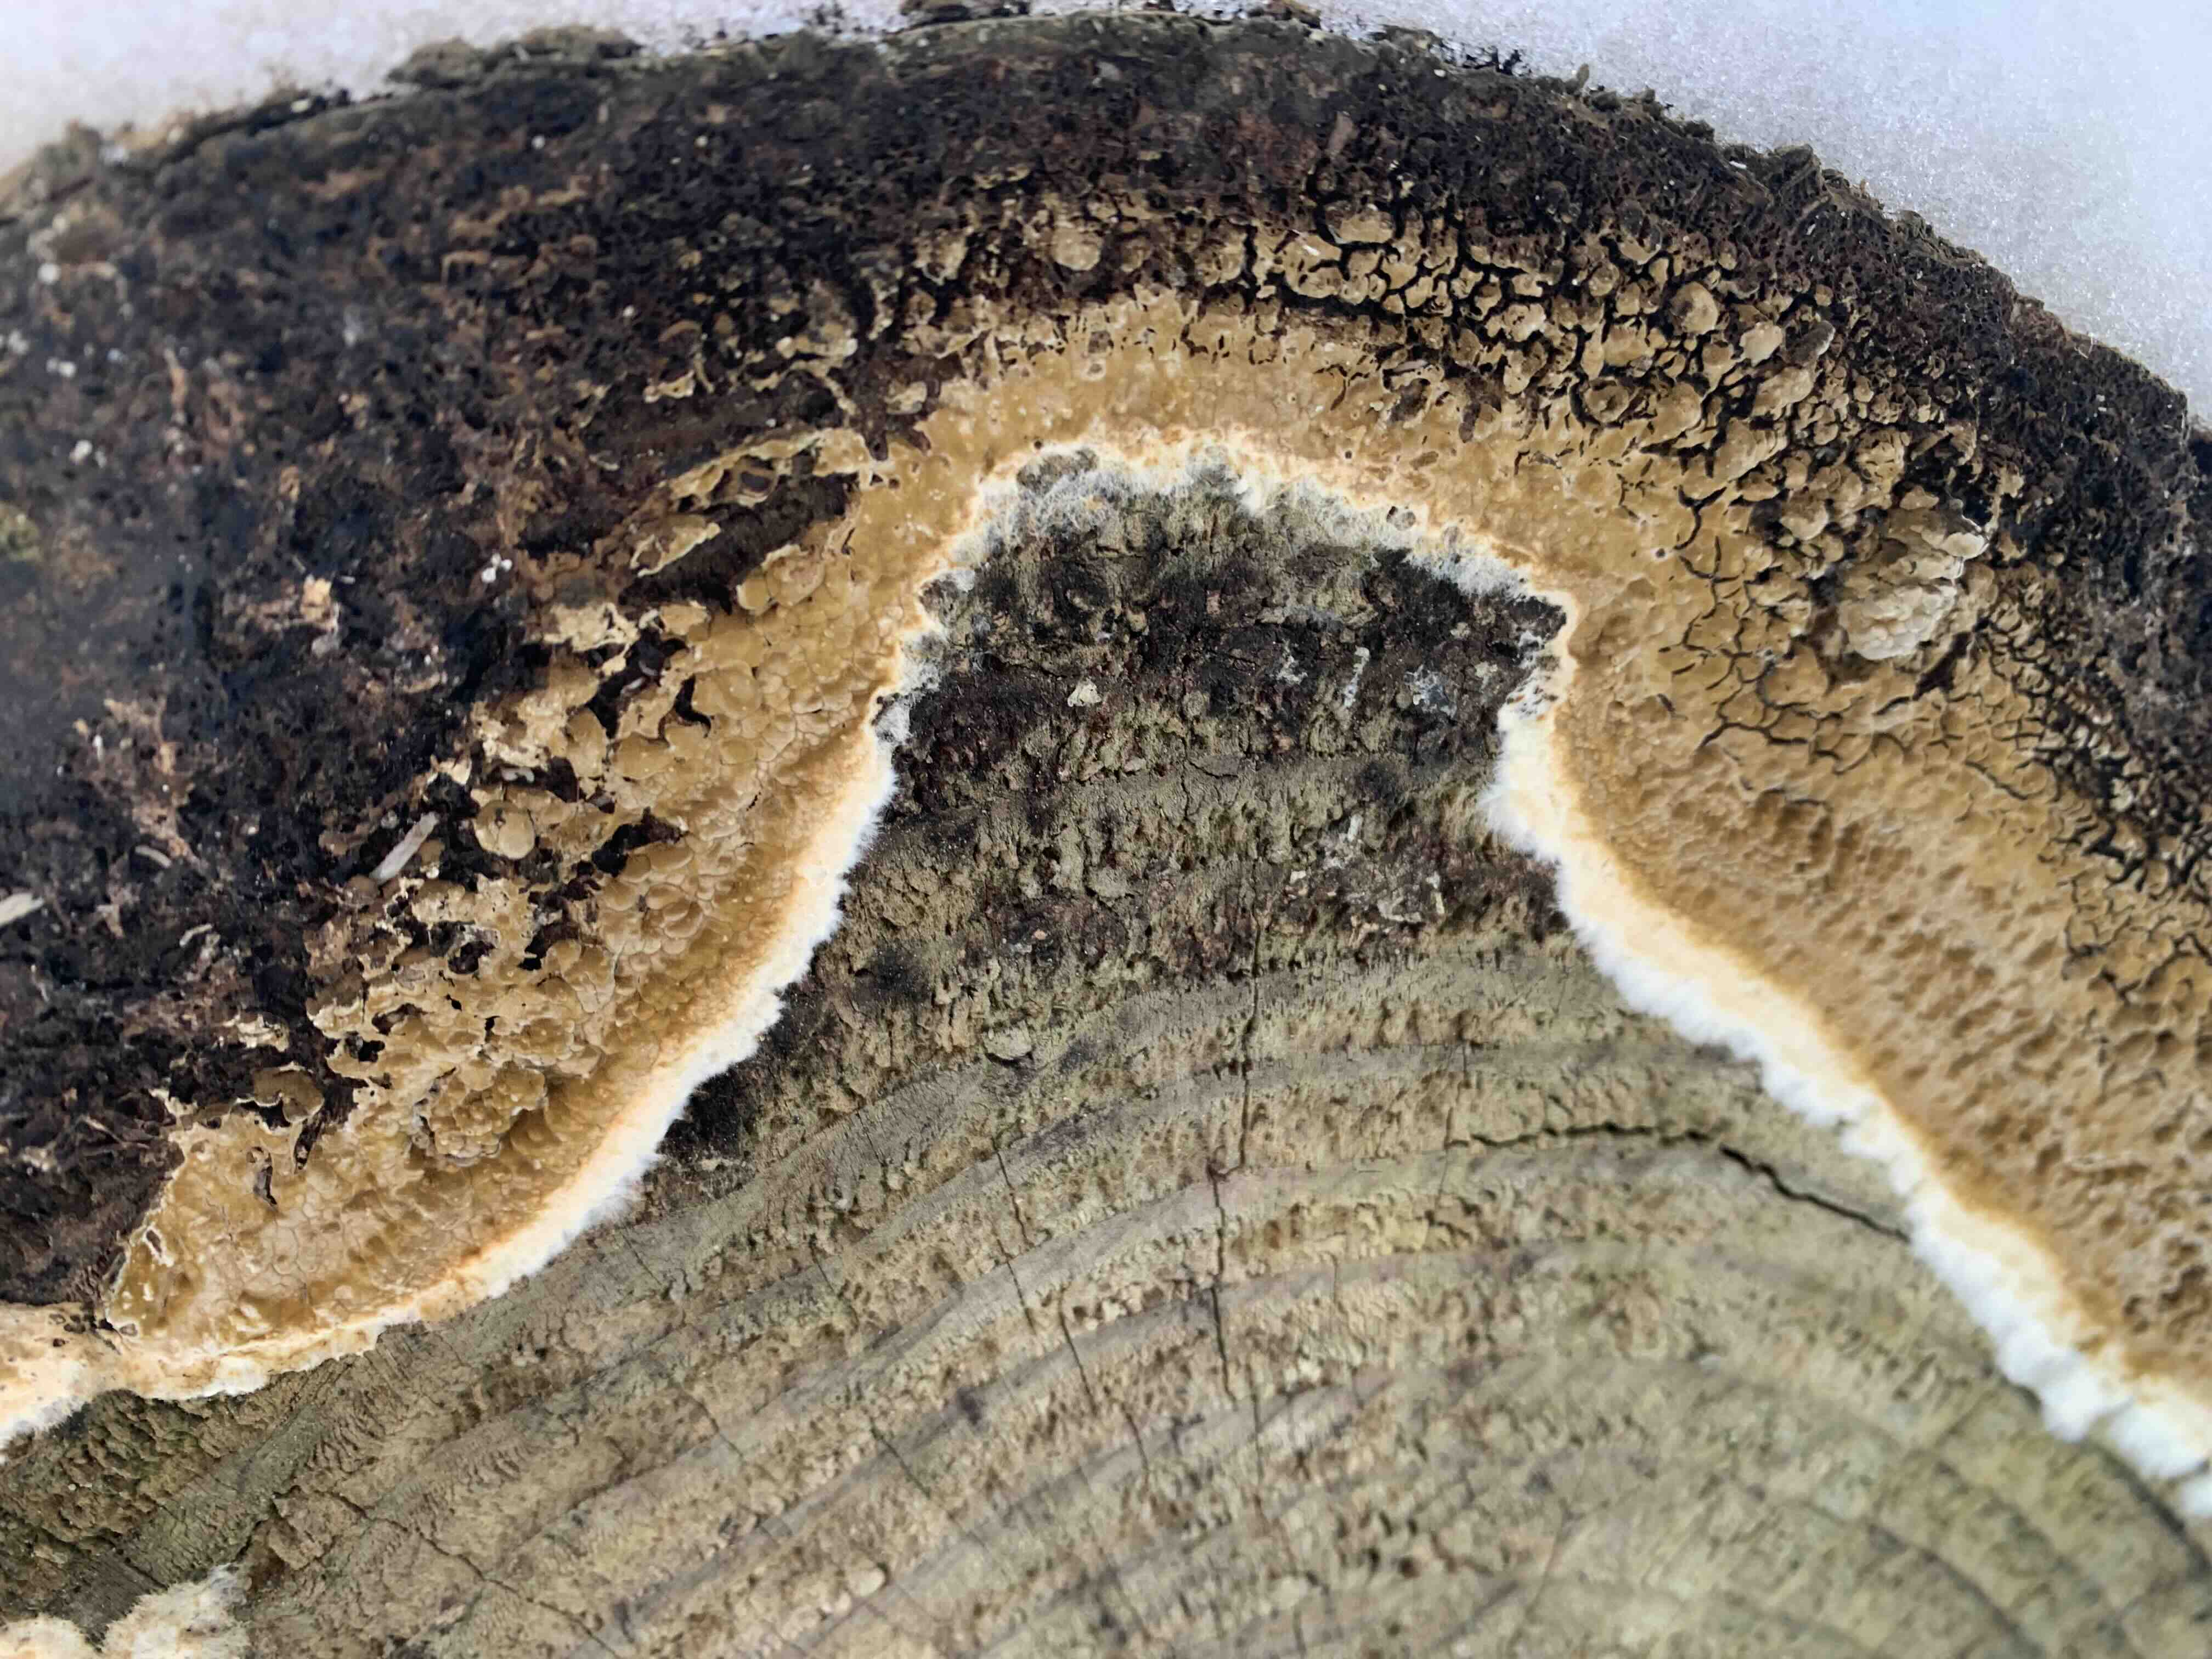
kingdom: Fungi
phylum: Basidiomycota
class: Agaricomycetes
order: Boletales
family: Coniophoraceae
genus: Coniophora
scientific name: Coniophora puteana
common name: gul tømmersvamp
